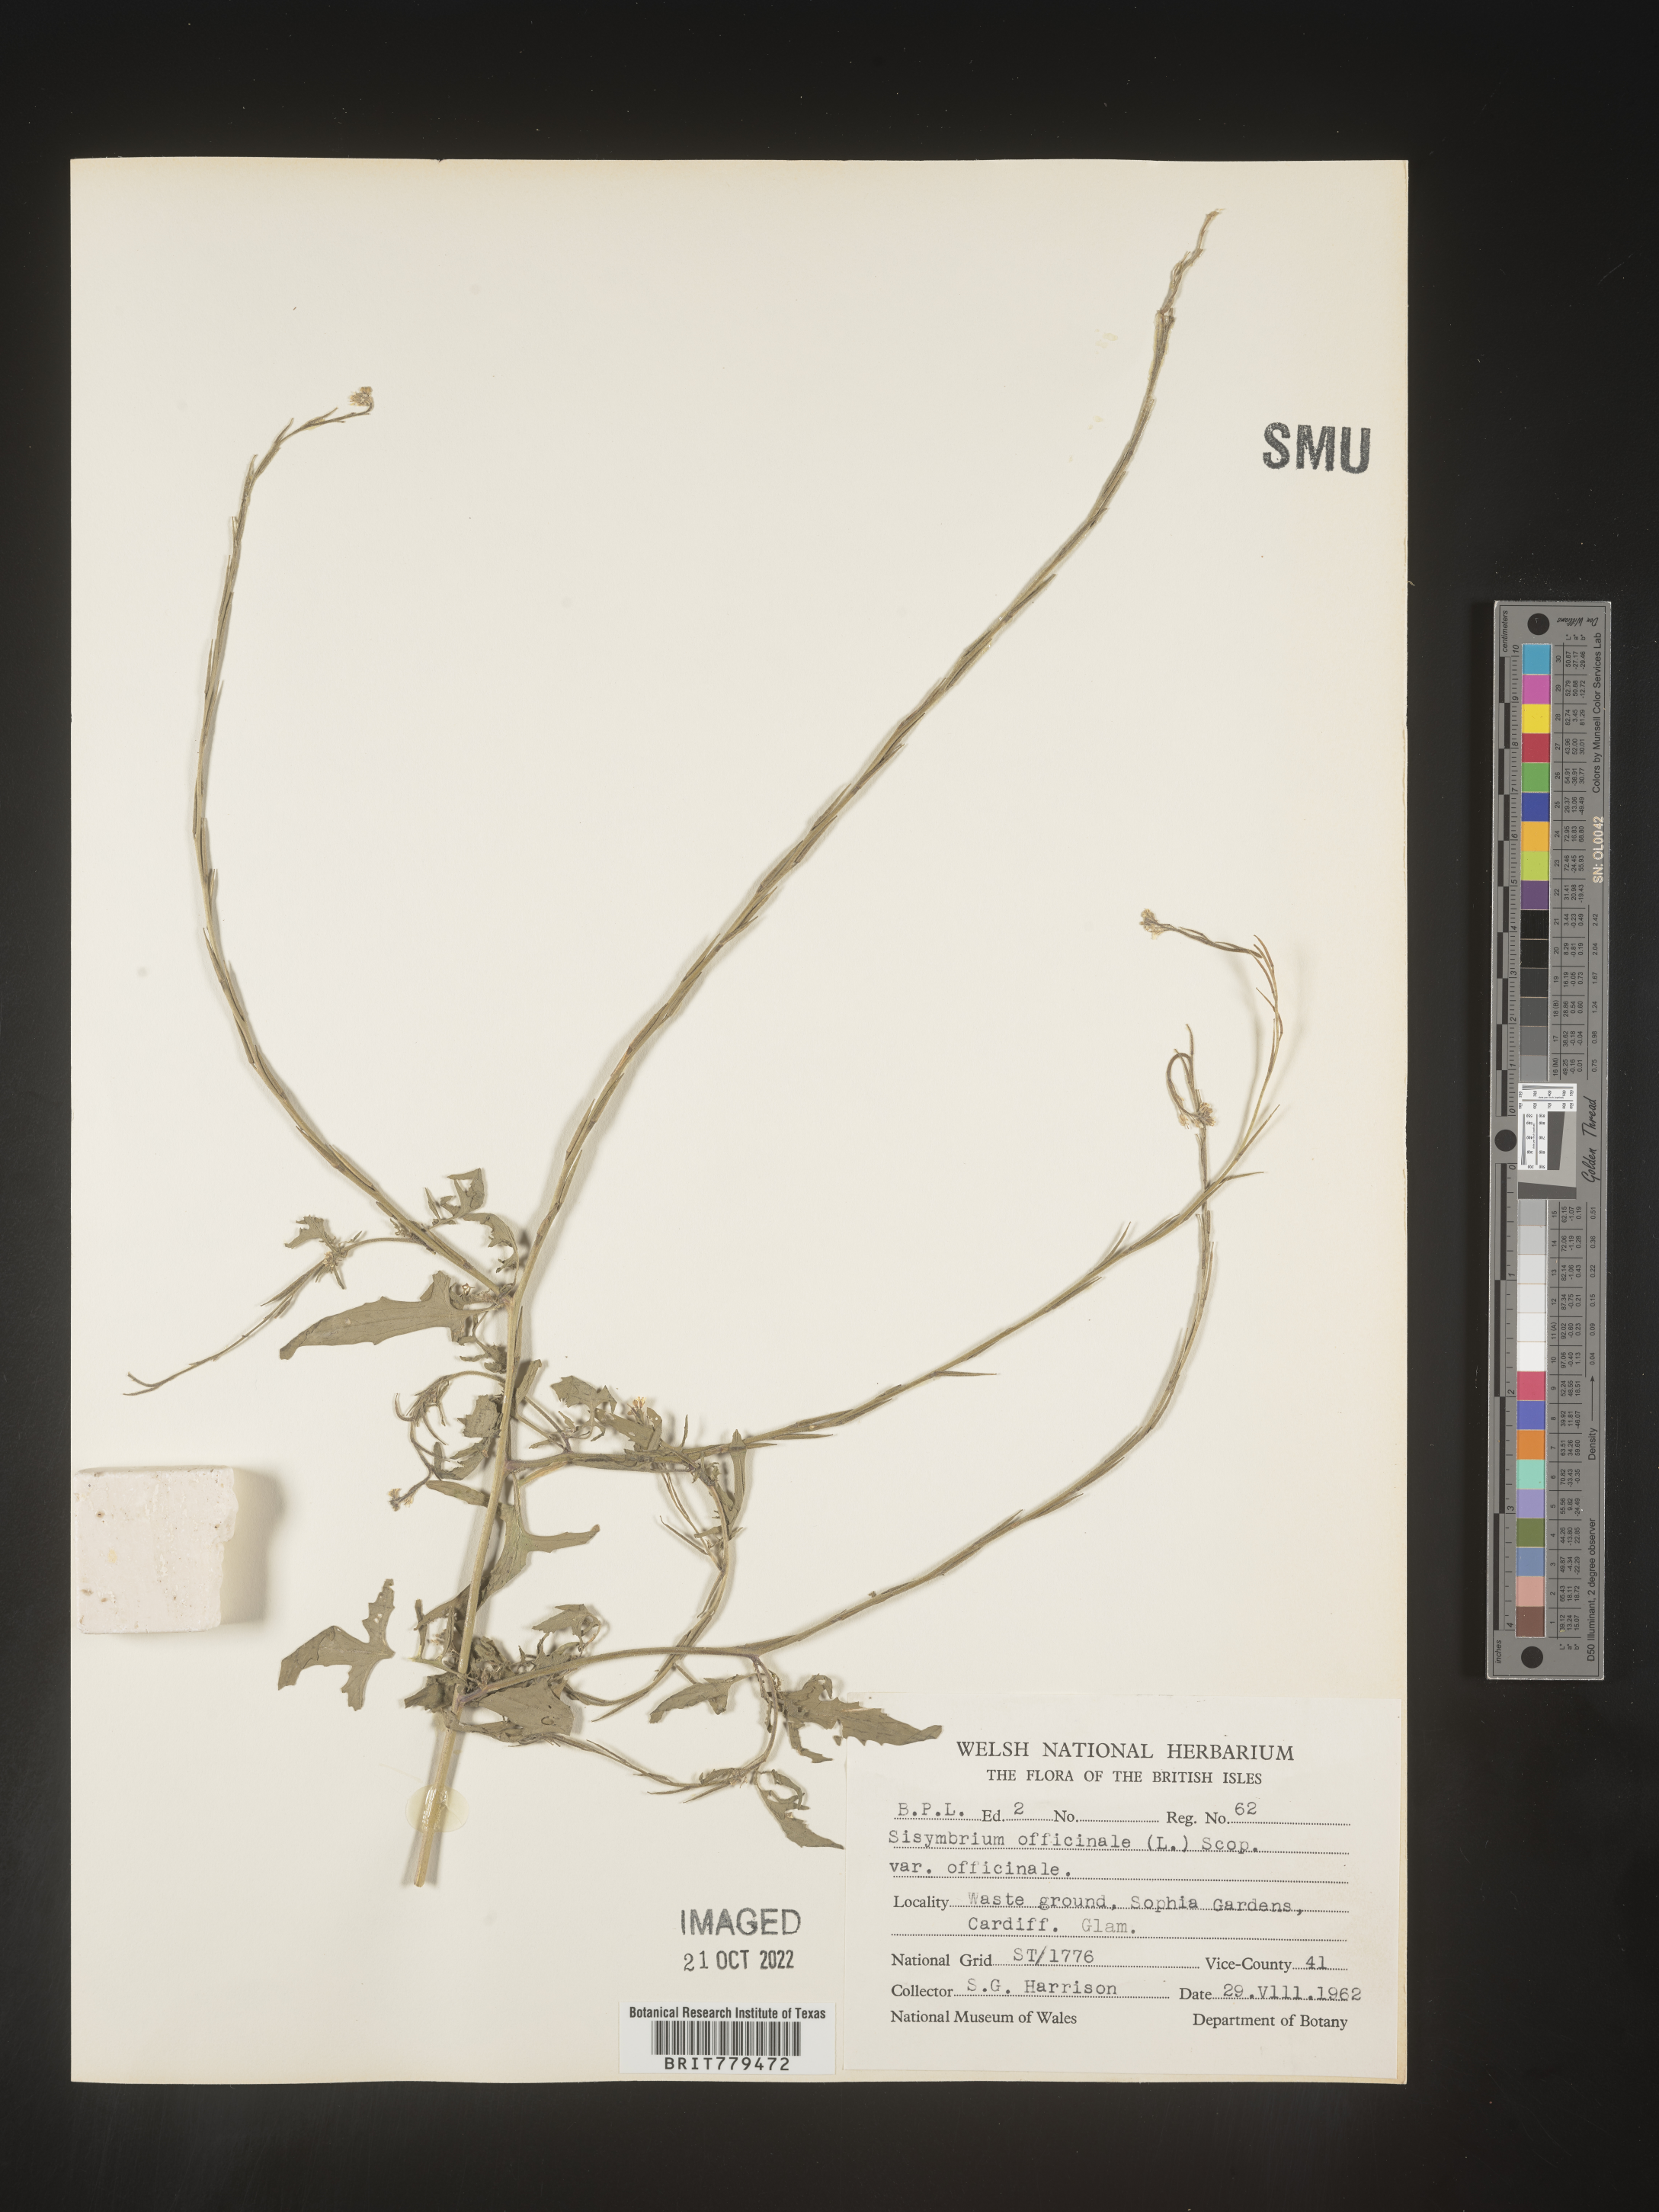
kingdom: Plantae
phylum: Tracheophyta
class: Magnoliopsida
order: Brassicales
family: Brassicaceae
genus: Sisymbrium
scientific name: Sisymbrium
